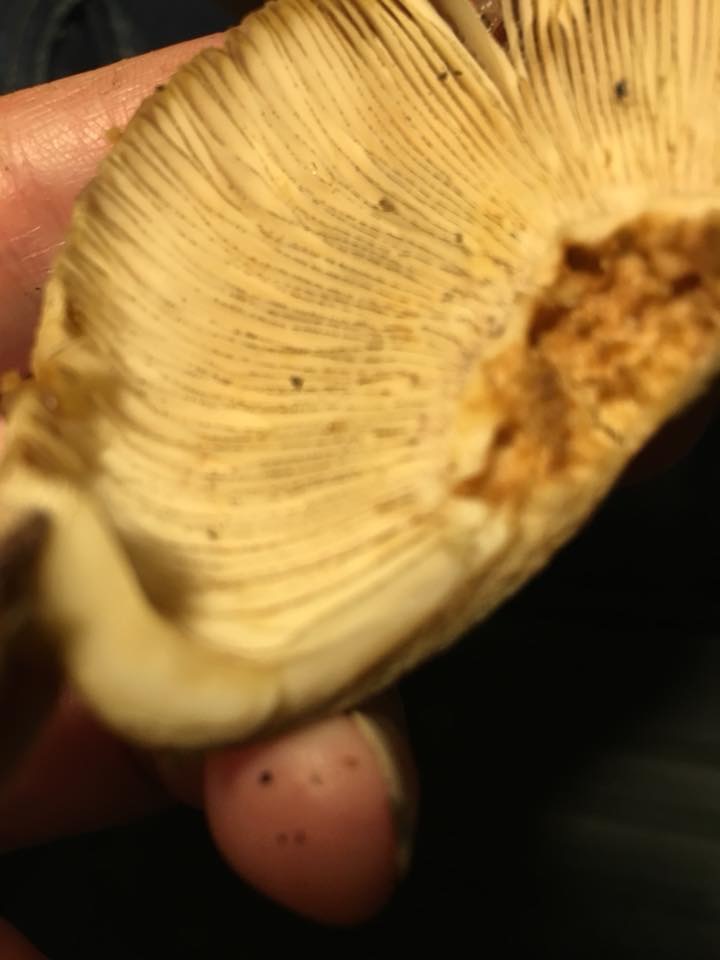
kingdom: Fungi
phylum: Basidiomycota
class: Agaricomycetes
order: Russulales
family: Russulaceae
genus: Russula
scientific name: Russula illota
